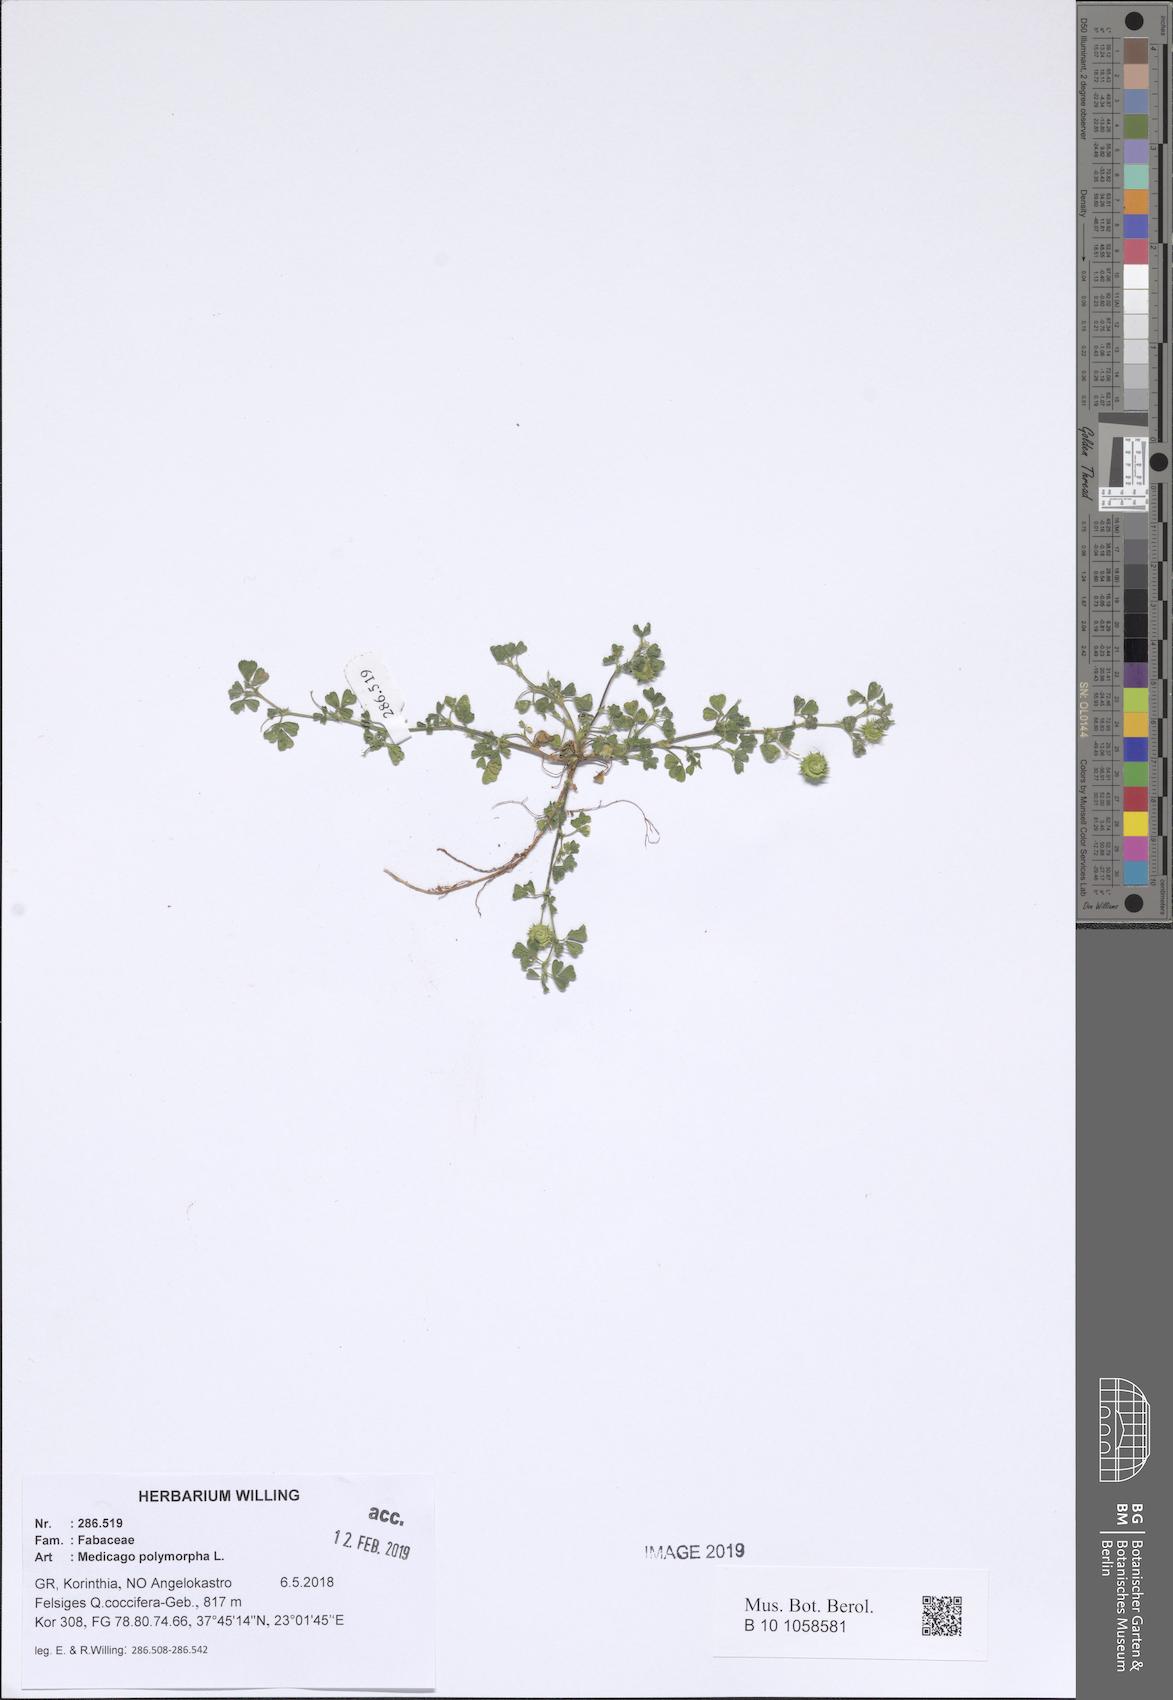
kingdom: Plantae
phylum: Tracheophyta
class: Magnoliopsida
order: Fabales
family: Fabaceae
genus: Medicago
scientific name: Medicago polymorpha
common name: Burclover
